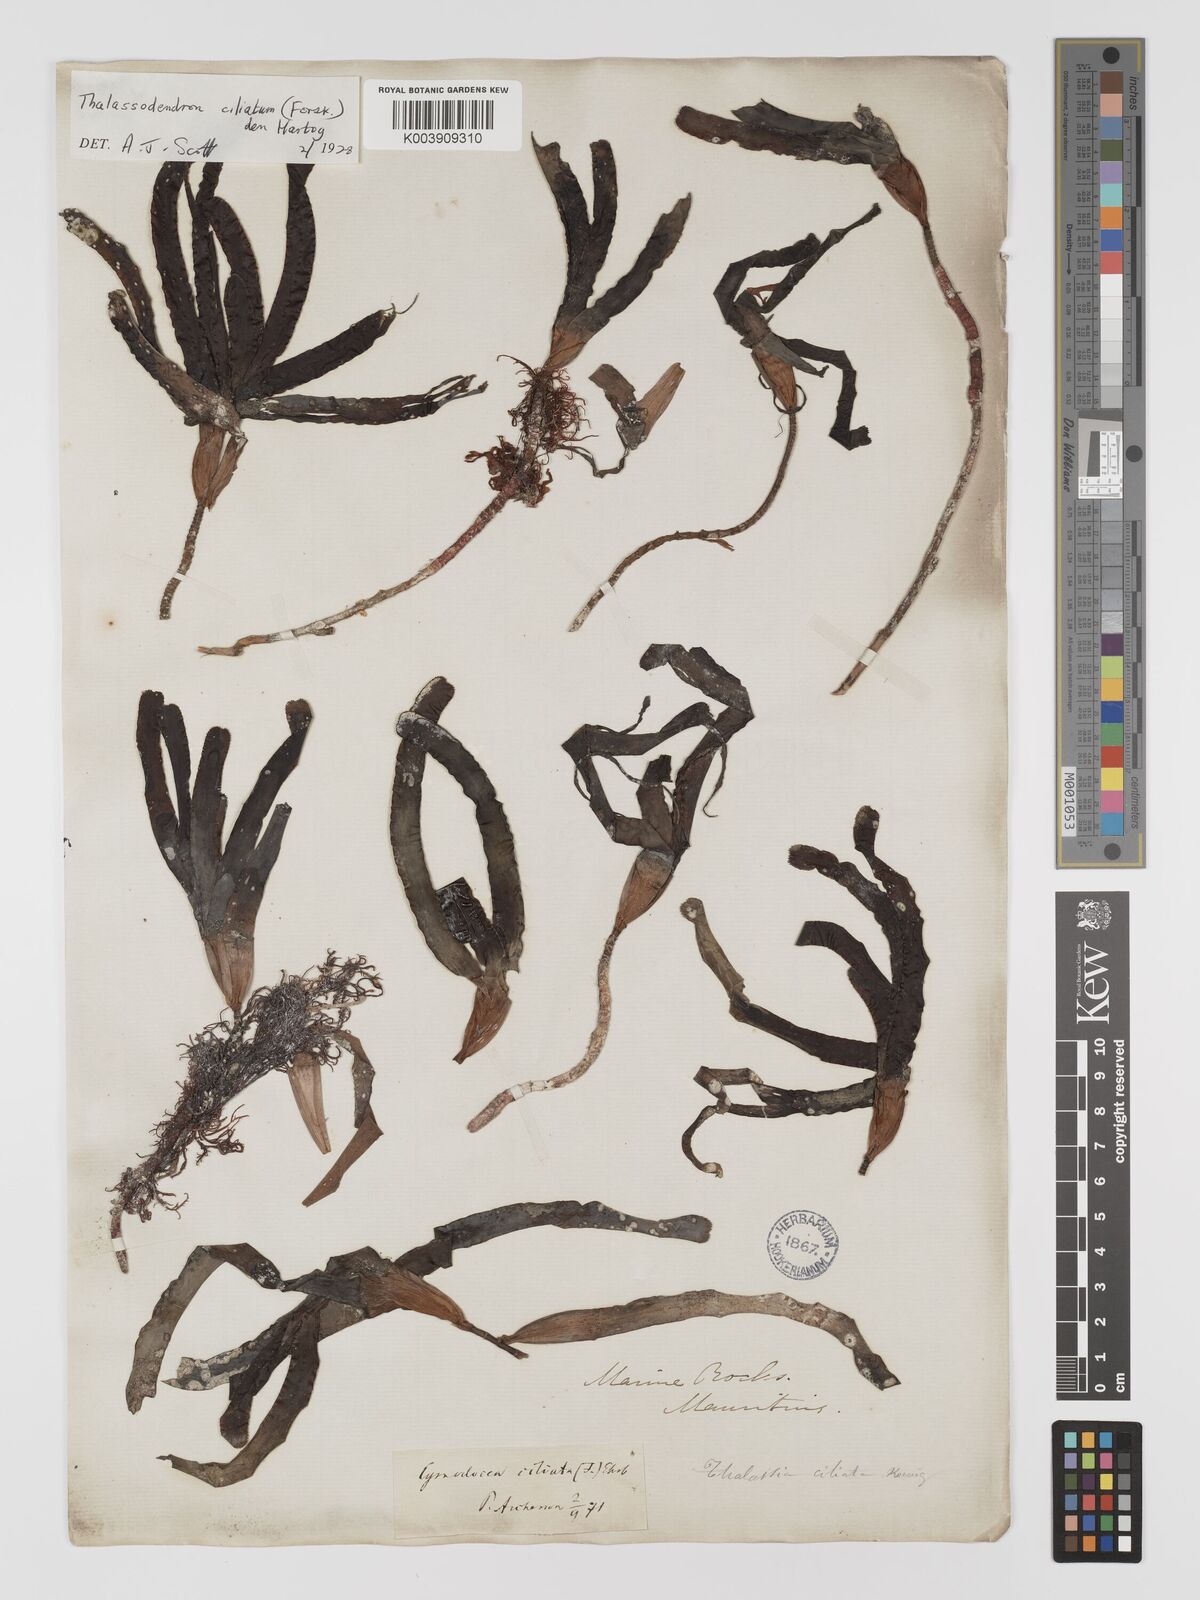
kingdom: Plantae
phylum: Tracheophyta
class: Liliopsida
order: Alismatales
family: Cymodoceaceae
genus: Thalassodendron
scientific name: Thalassodendron ciliatum
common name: Species code: tc
